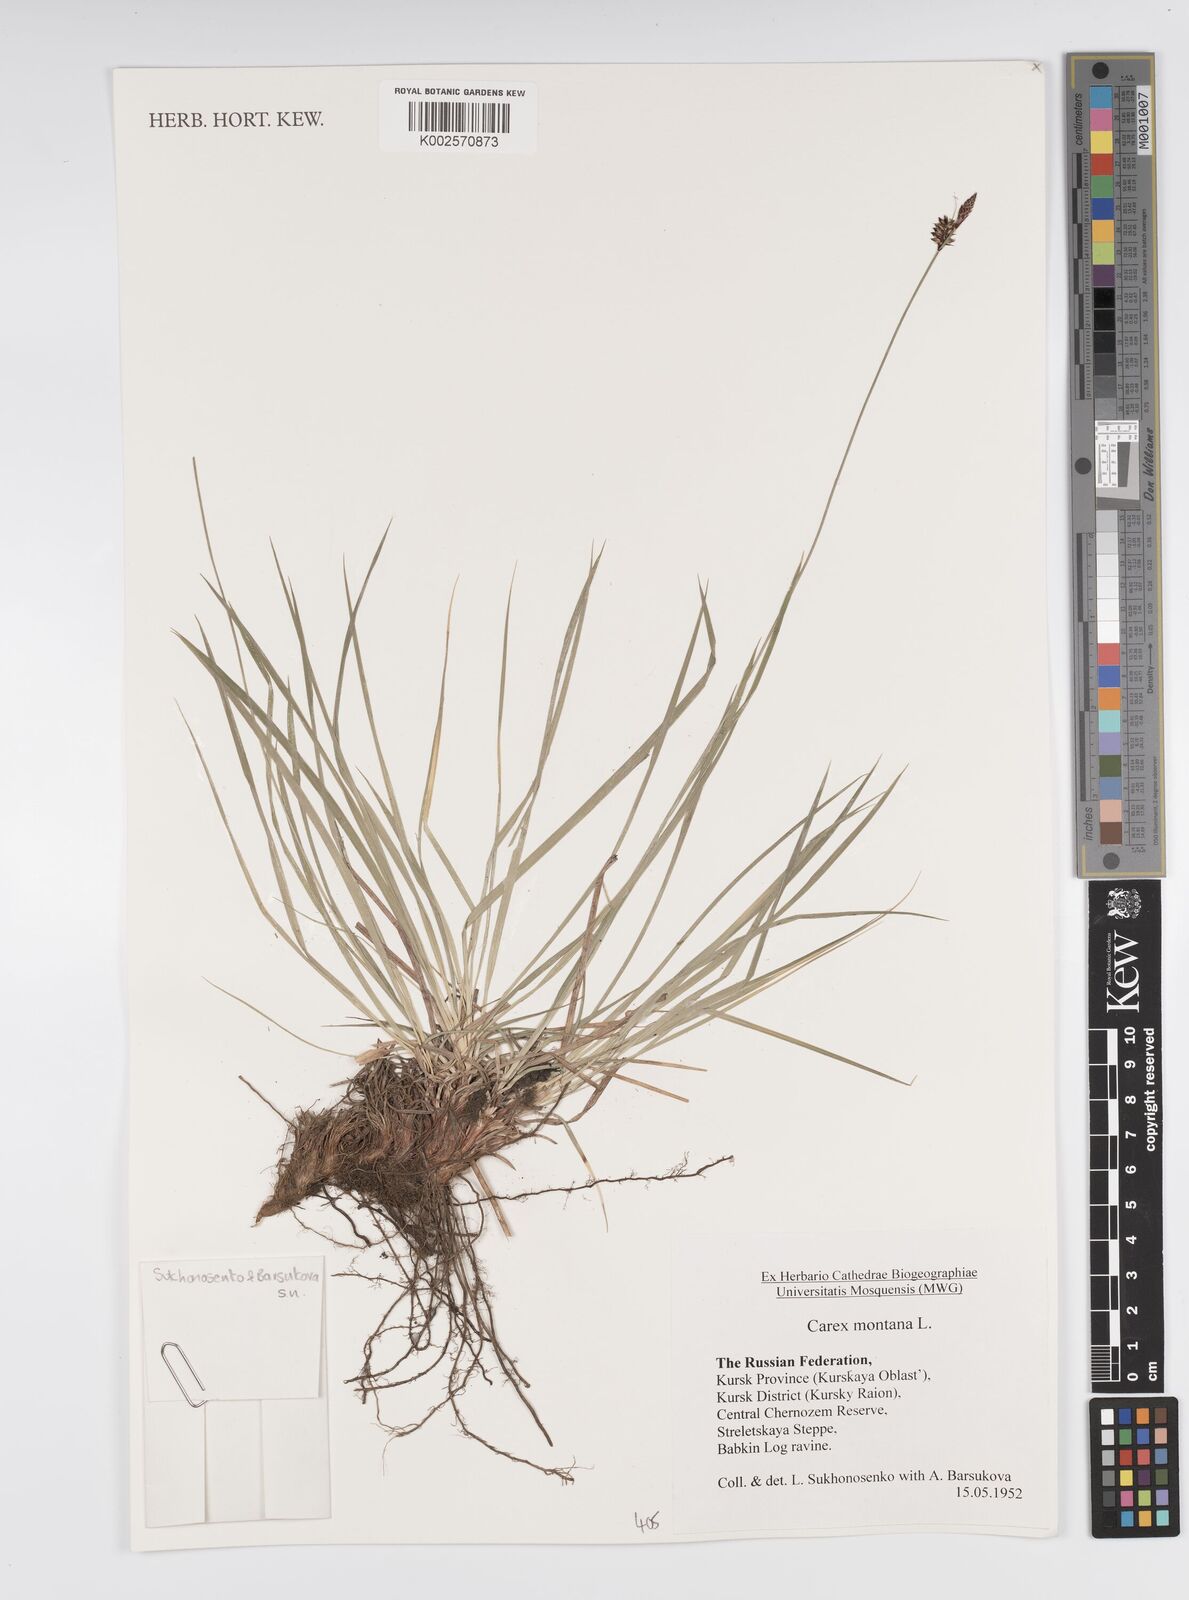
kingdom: Plantae
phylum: Tracheophyta
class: Liliopsida
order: Poales
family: Cyperaceae
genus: Carex
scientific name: Carex montana
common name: Soft-leaved sedge
